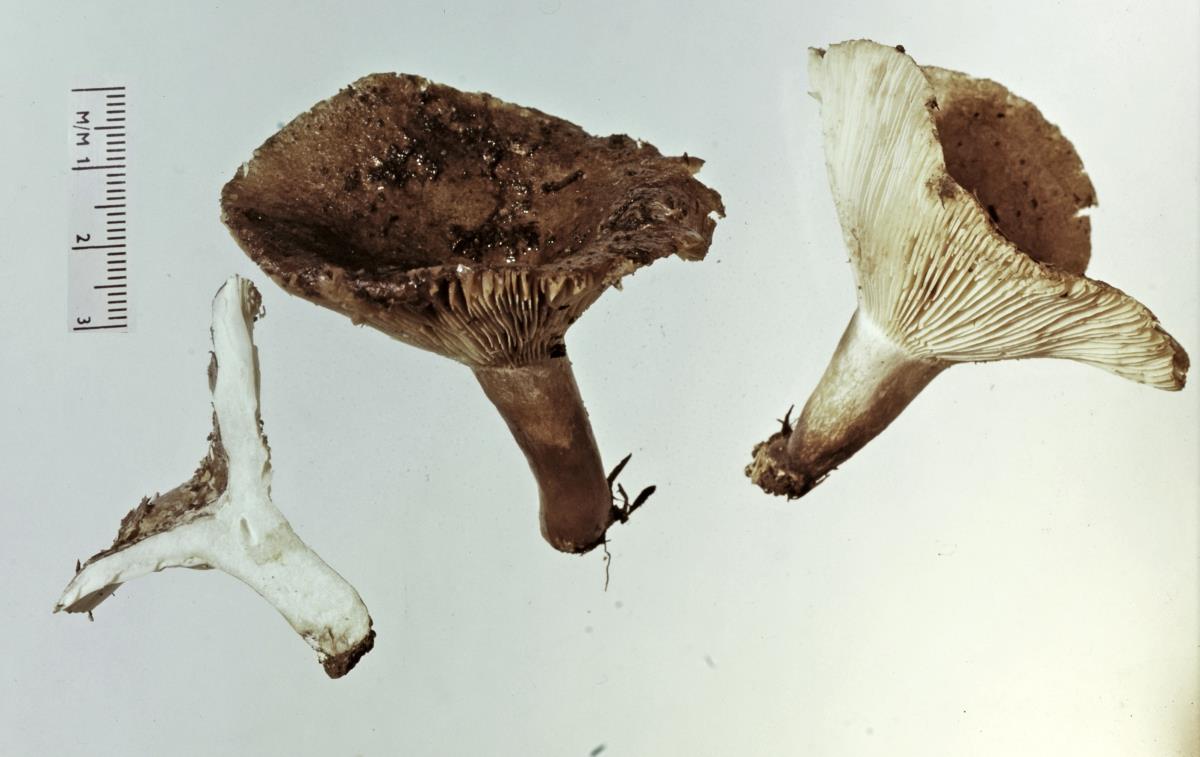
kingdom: Fungi
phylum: Basidiomycota
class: Agaricomycetes
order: Russulales
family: Russulaceae
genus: Russula
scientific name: Russula griseobrunnea
